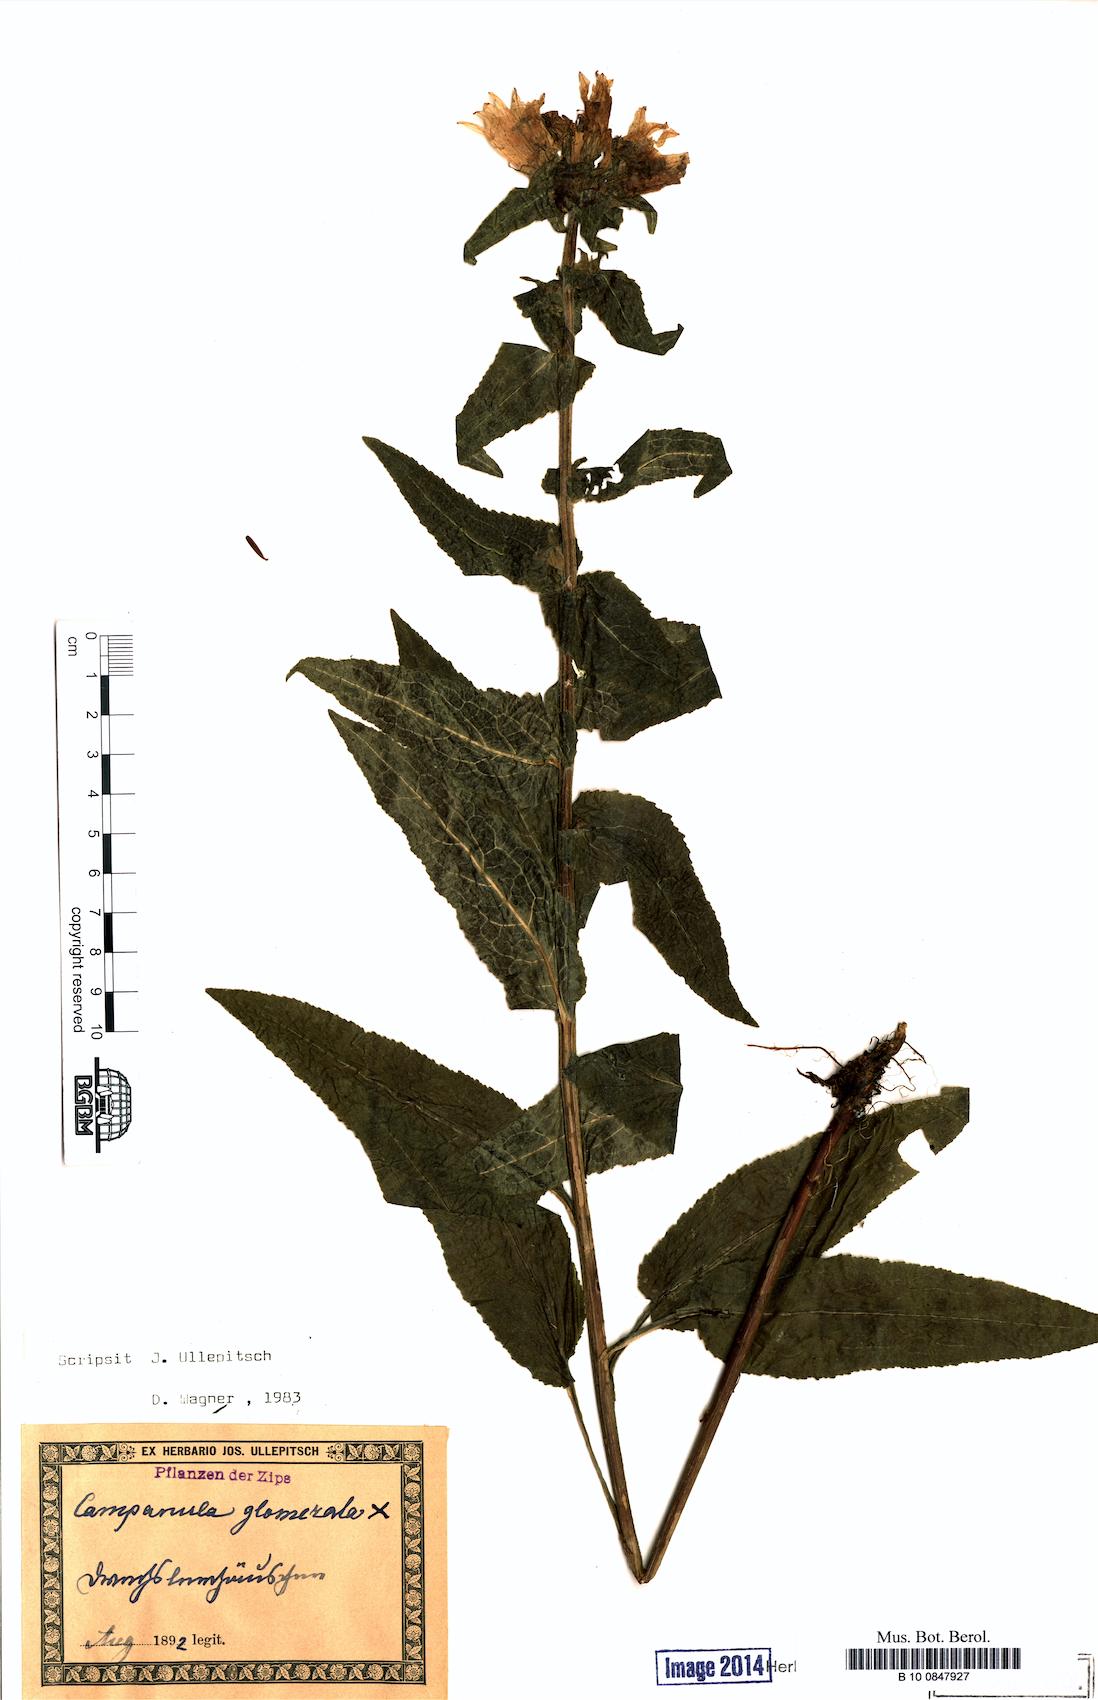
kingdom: Plantae
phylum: Tracheophyta
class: Magnoliopsida
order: Asterales
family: Campanulaceae
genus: Campanula
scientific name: Campanula glomerata
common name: Clustered bellflower
